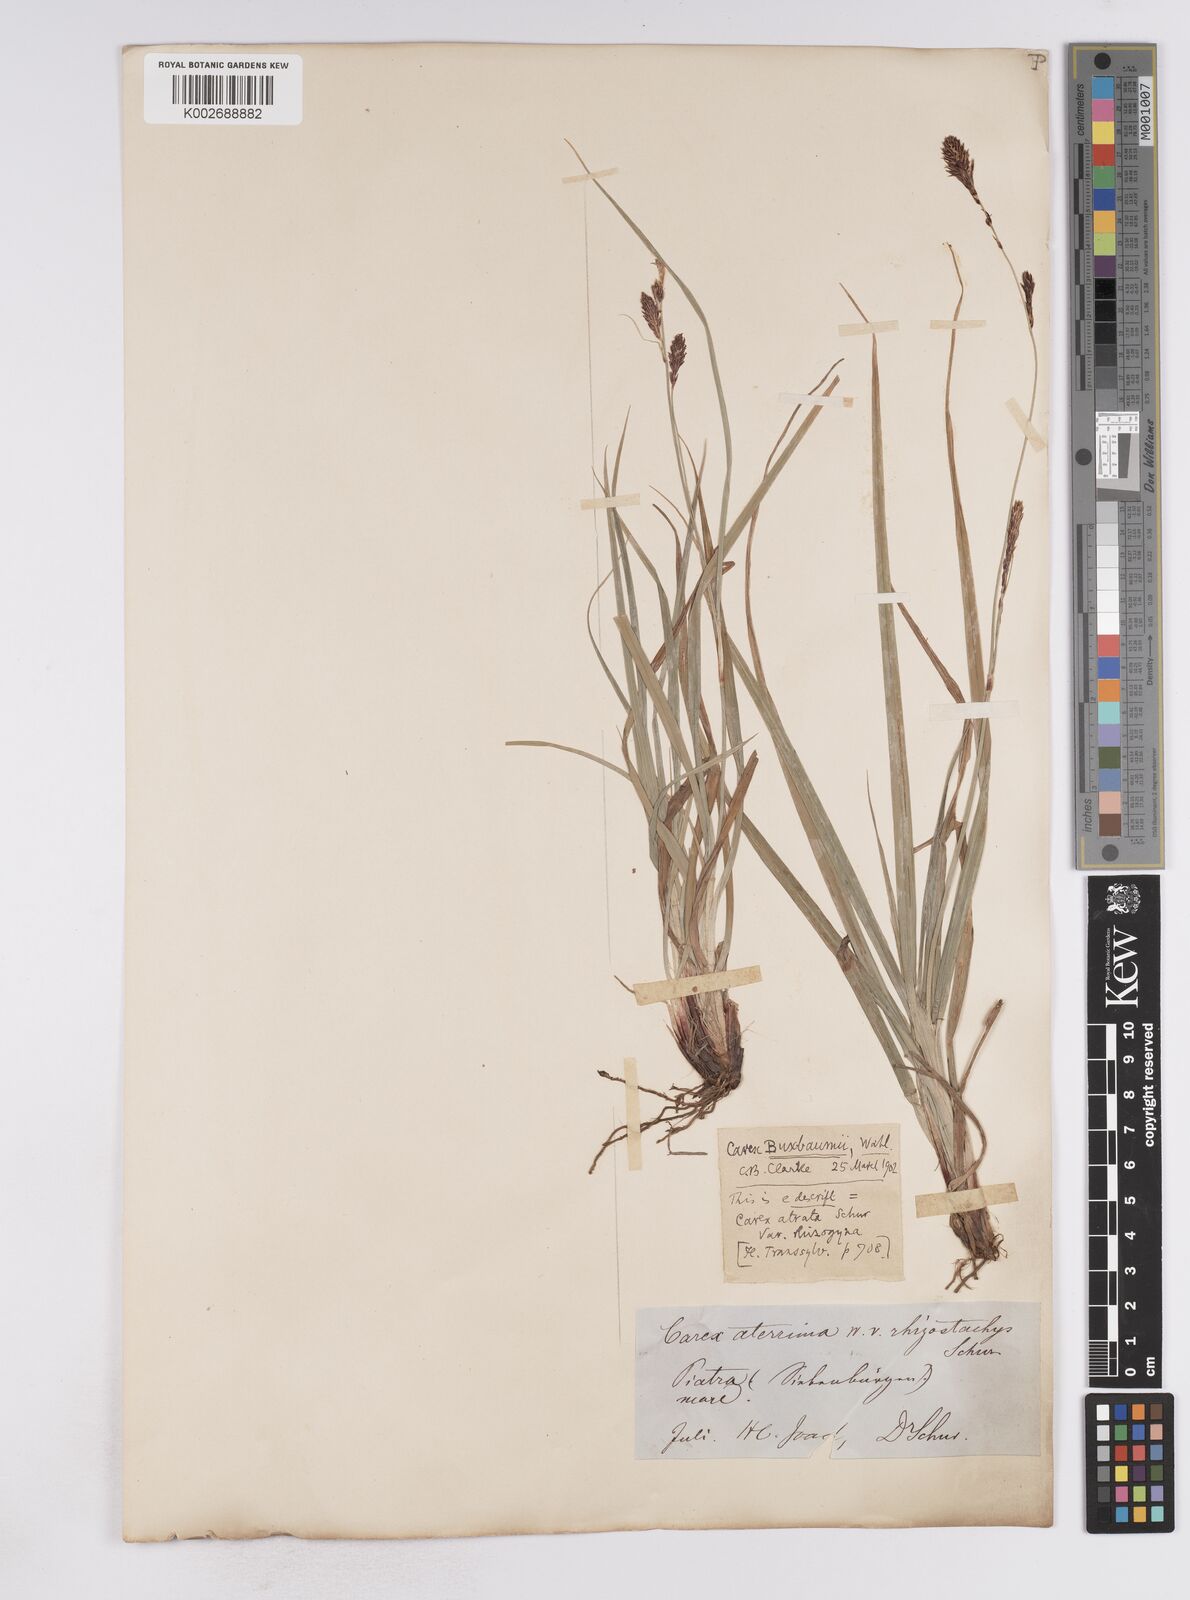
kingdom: Plantae
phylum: Tracheophyta
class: Liliopsida
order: Poales
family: Cyperaceae
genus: Carex
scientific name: Carex buxbaumii
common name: Club sedge
